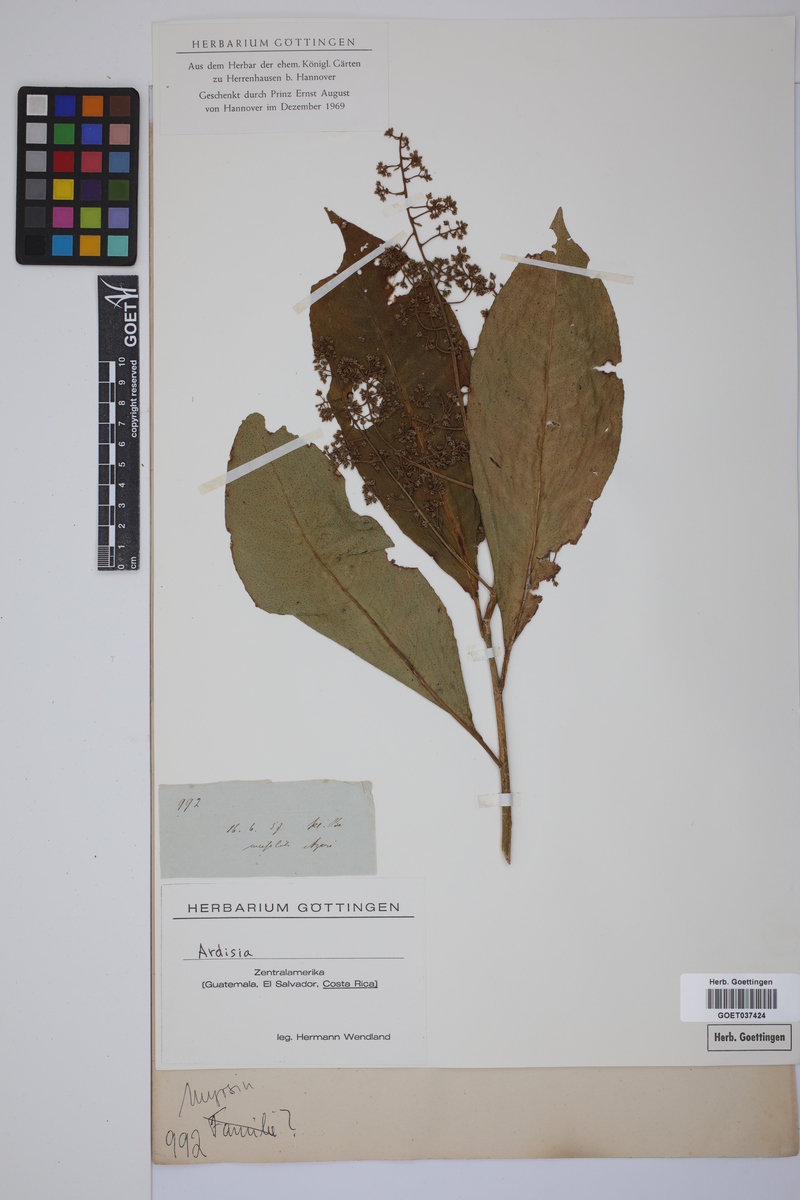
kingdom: Plantae
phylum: Tracheophyta
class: Magnoliopsida
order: Ericales
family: Primulaceae
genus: Ardisia
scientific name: Ardisia
